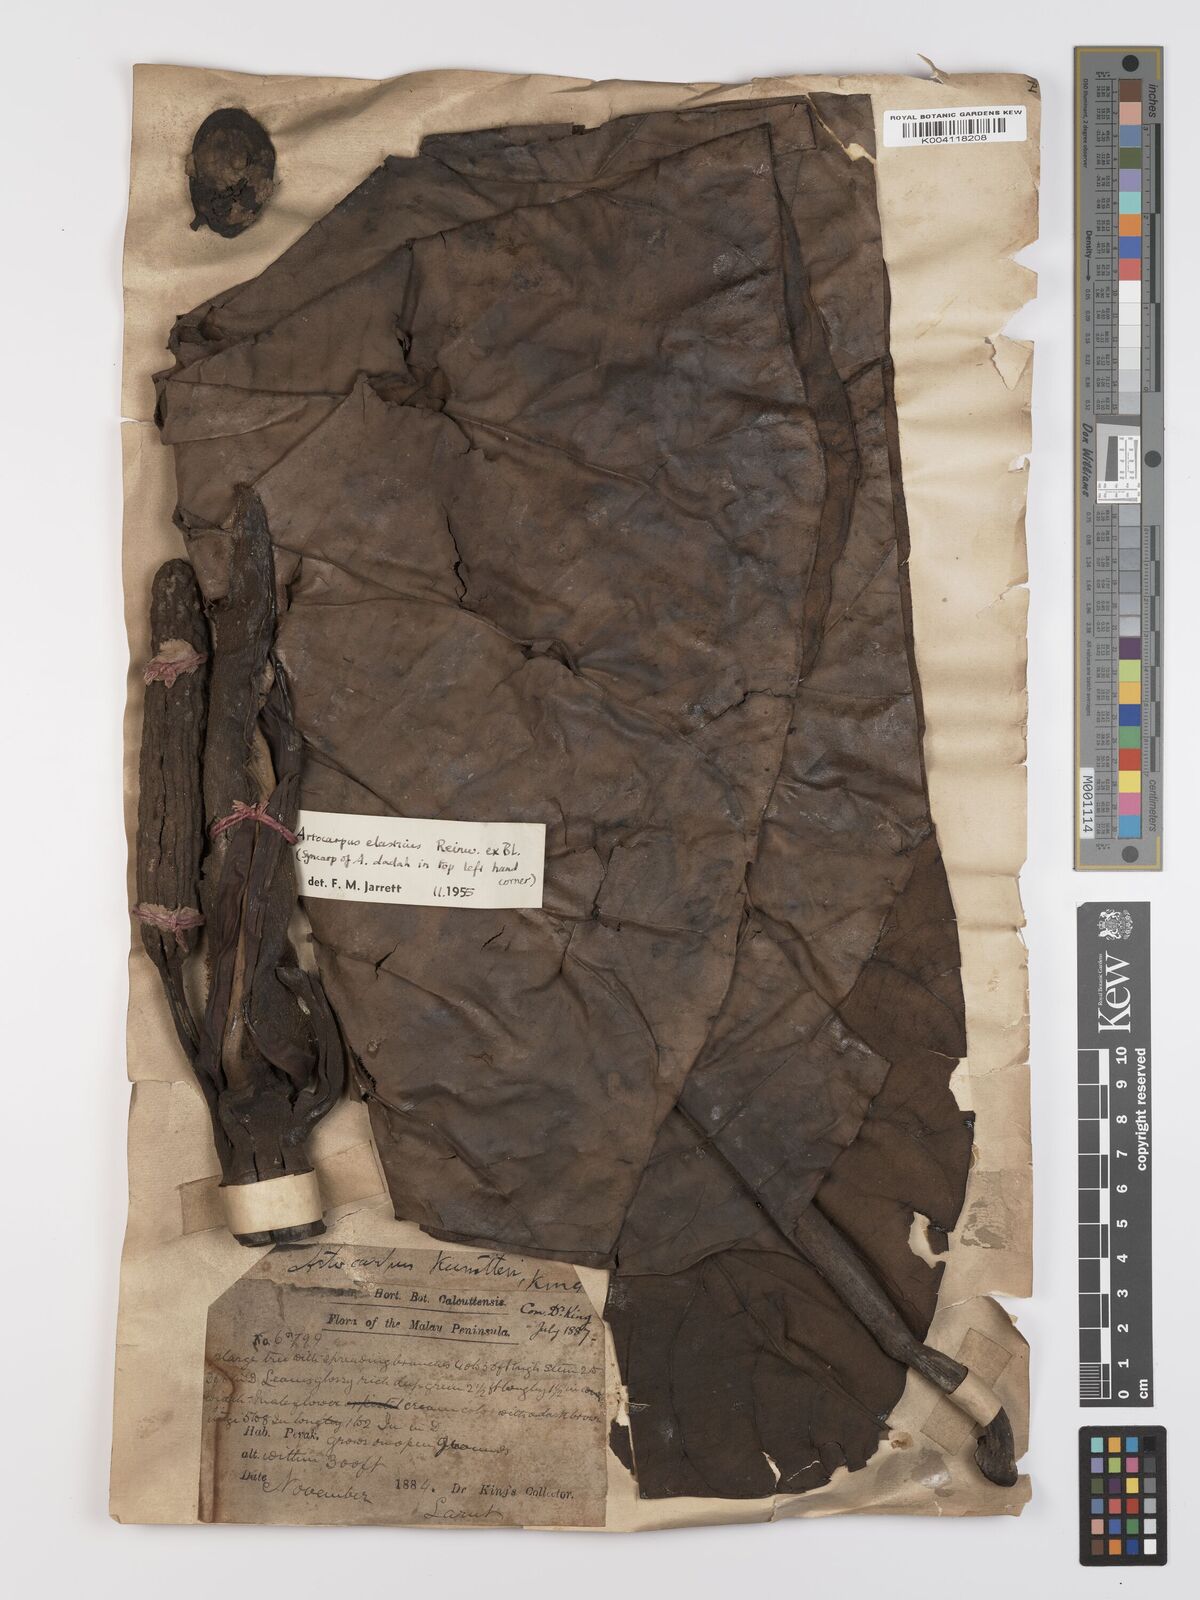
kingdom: Plantae
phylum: Tracheophyta
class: Magnoliopsida
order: Rosales
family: Moraceae
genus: Artocarpus
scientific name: Artocarpus elasticus
